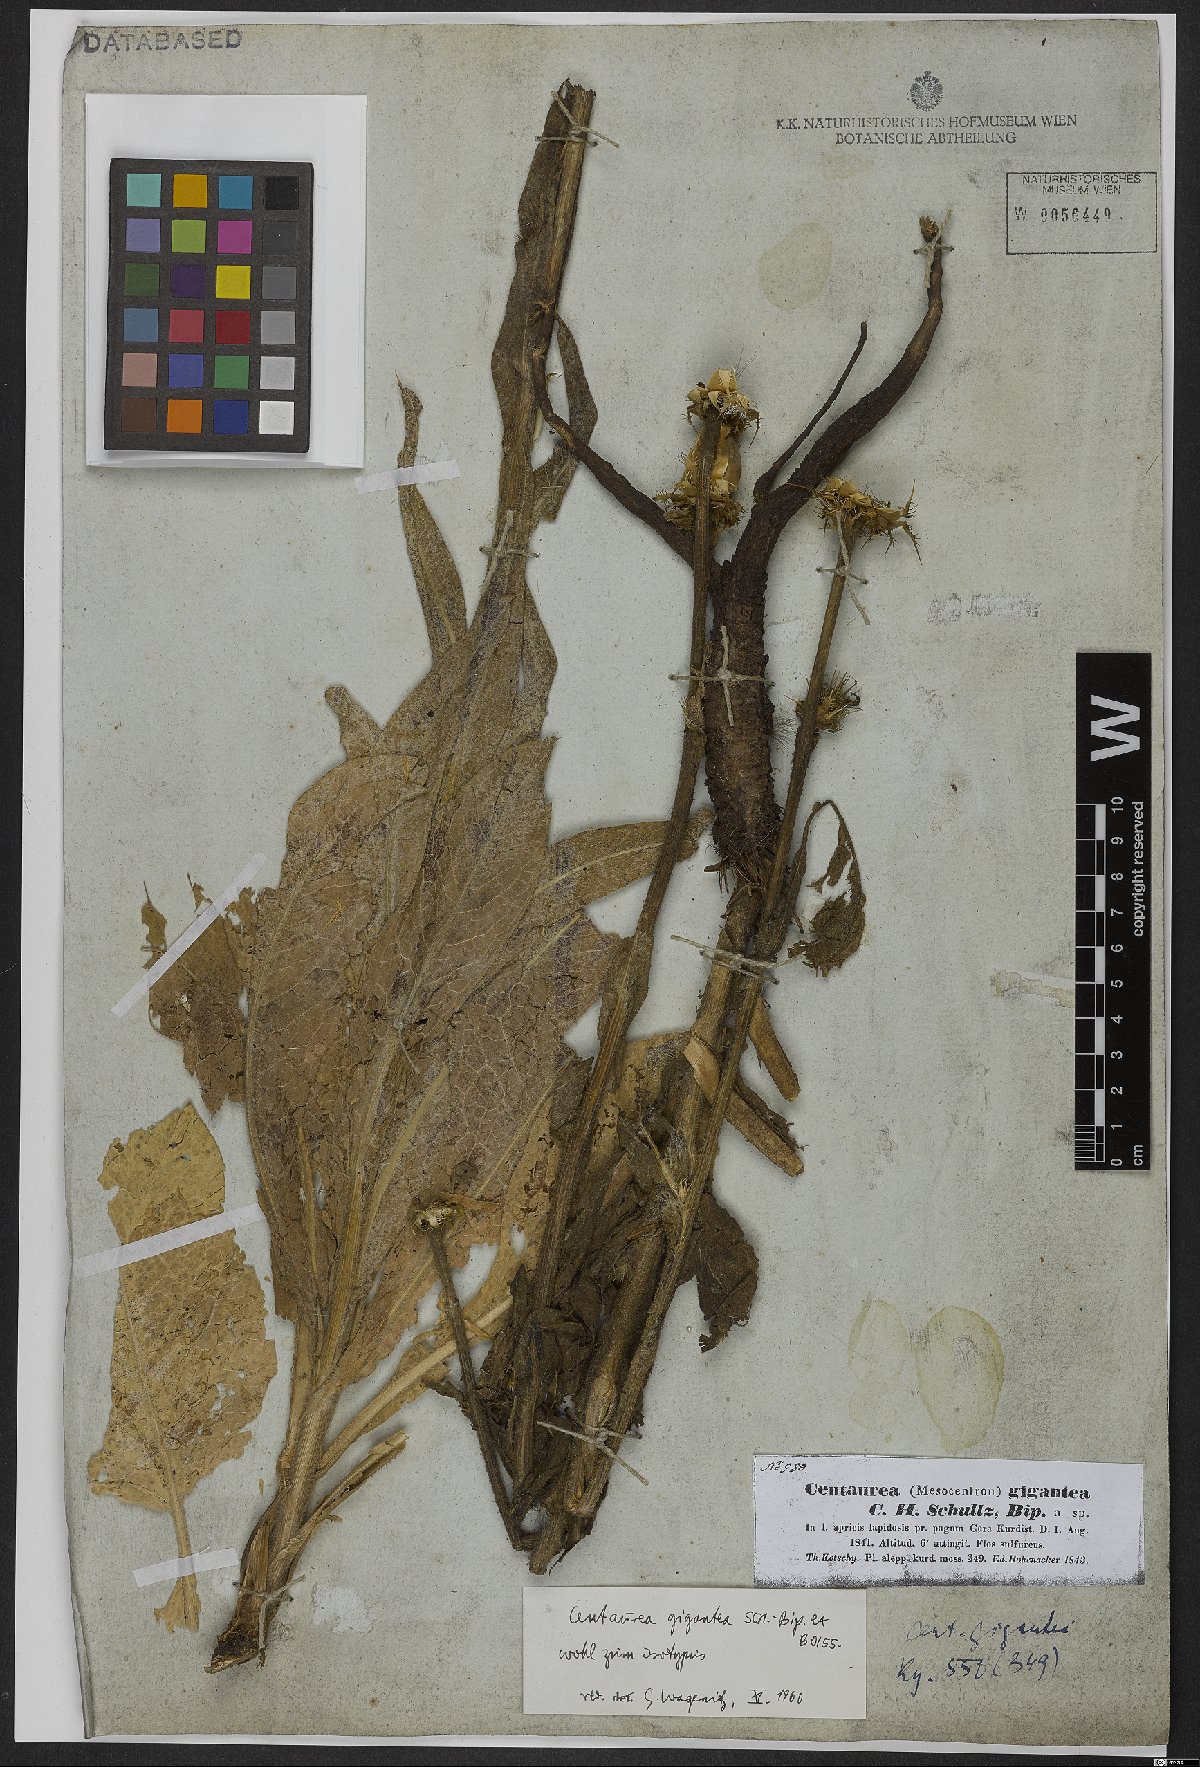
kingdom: Plantae
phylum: Tracheophyta
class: Magnoliopsida
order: Asterales
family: Asteraceae
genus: Centaurea
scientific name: Centaurea gigantea
